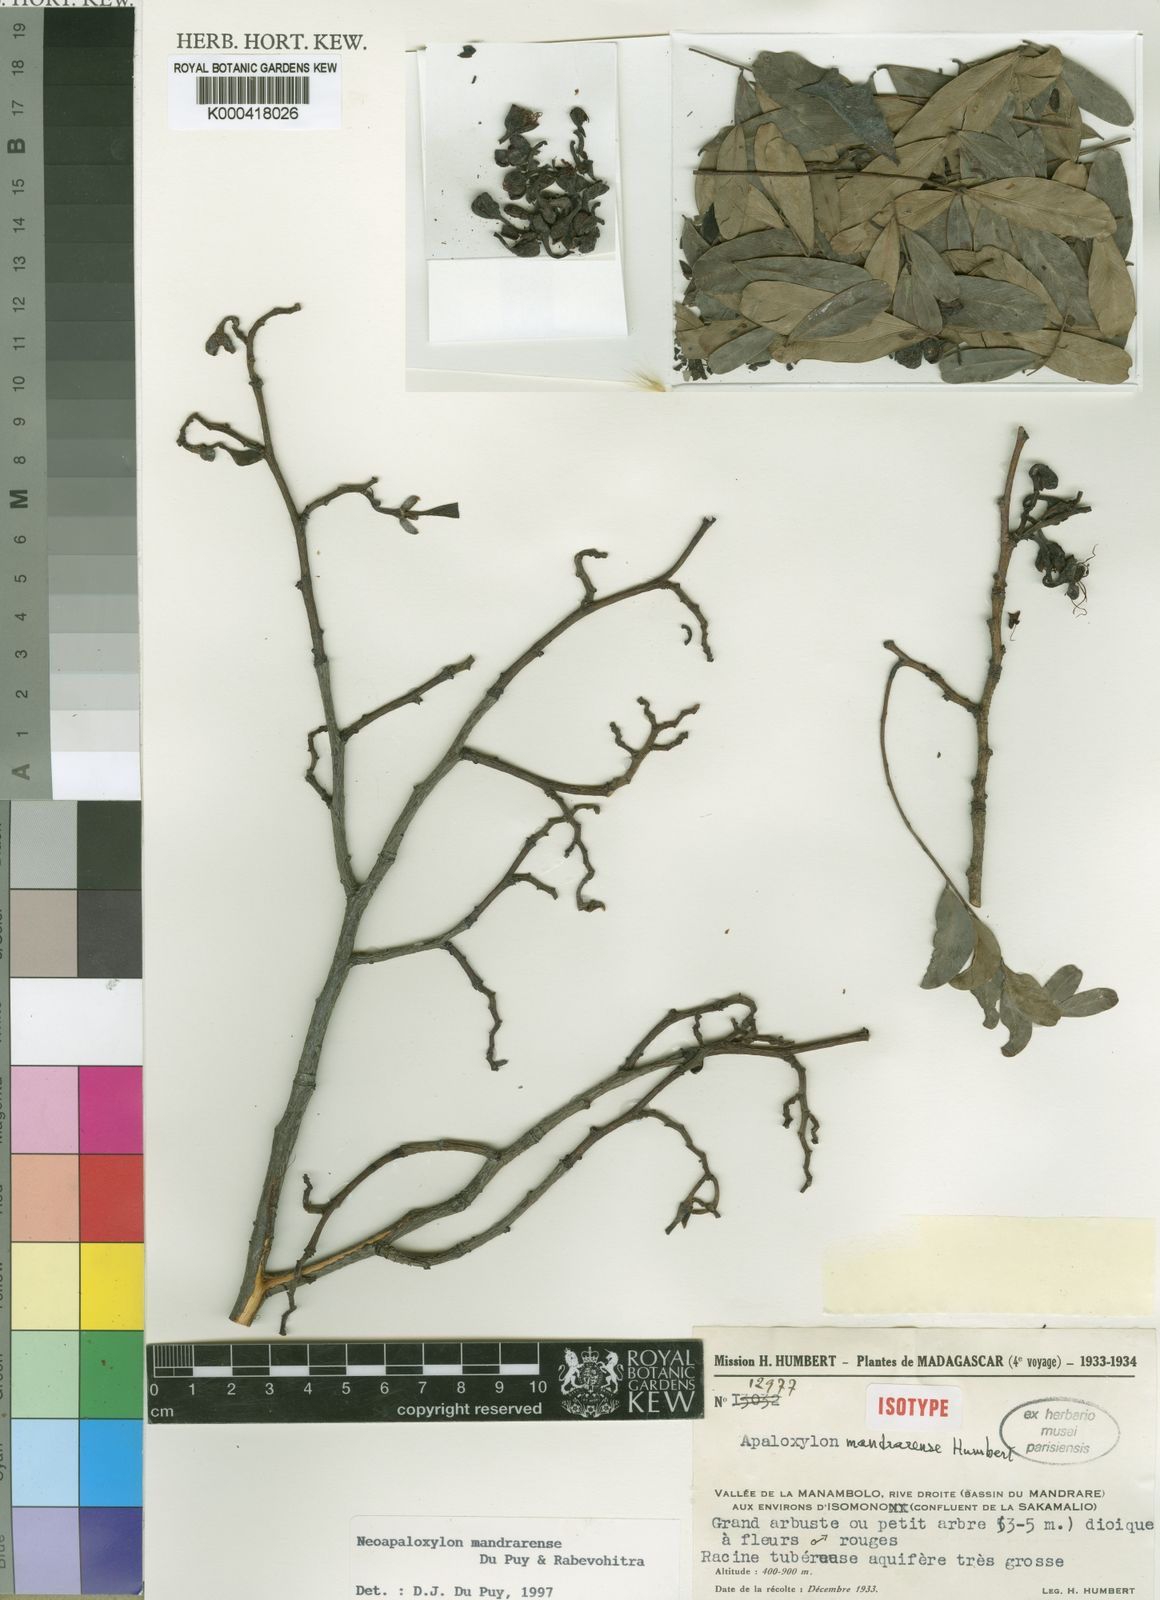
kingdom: Plantae
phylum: Tracheophyta
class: Magnoliopsida
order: Fabales
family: Fabaceae
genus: Neoapaloxylon
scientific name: Neoapaloxylon mandrarense
